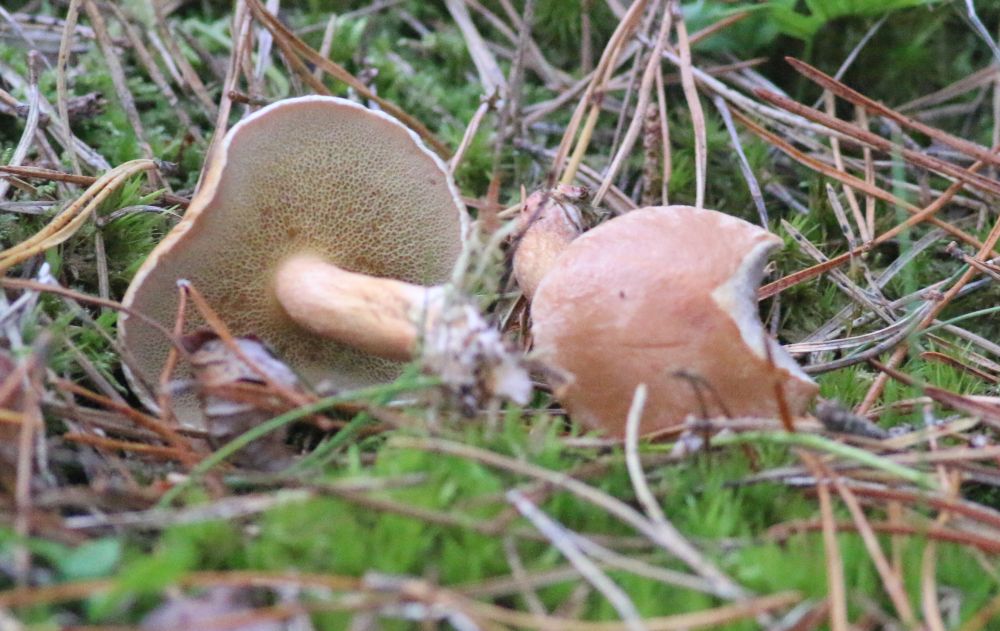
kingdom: Fungi
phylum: Basidiomycota
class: Agaricomycetes
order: Boletales
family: Suillaceae
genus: Suillus
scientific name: Suillus bovinus
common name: grovporet slimrørhat
